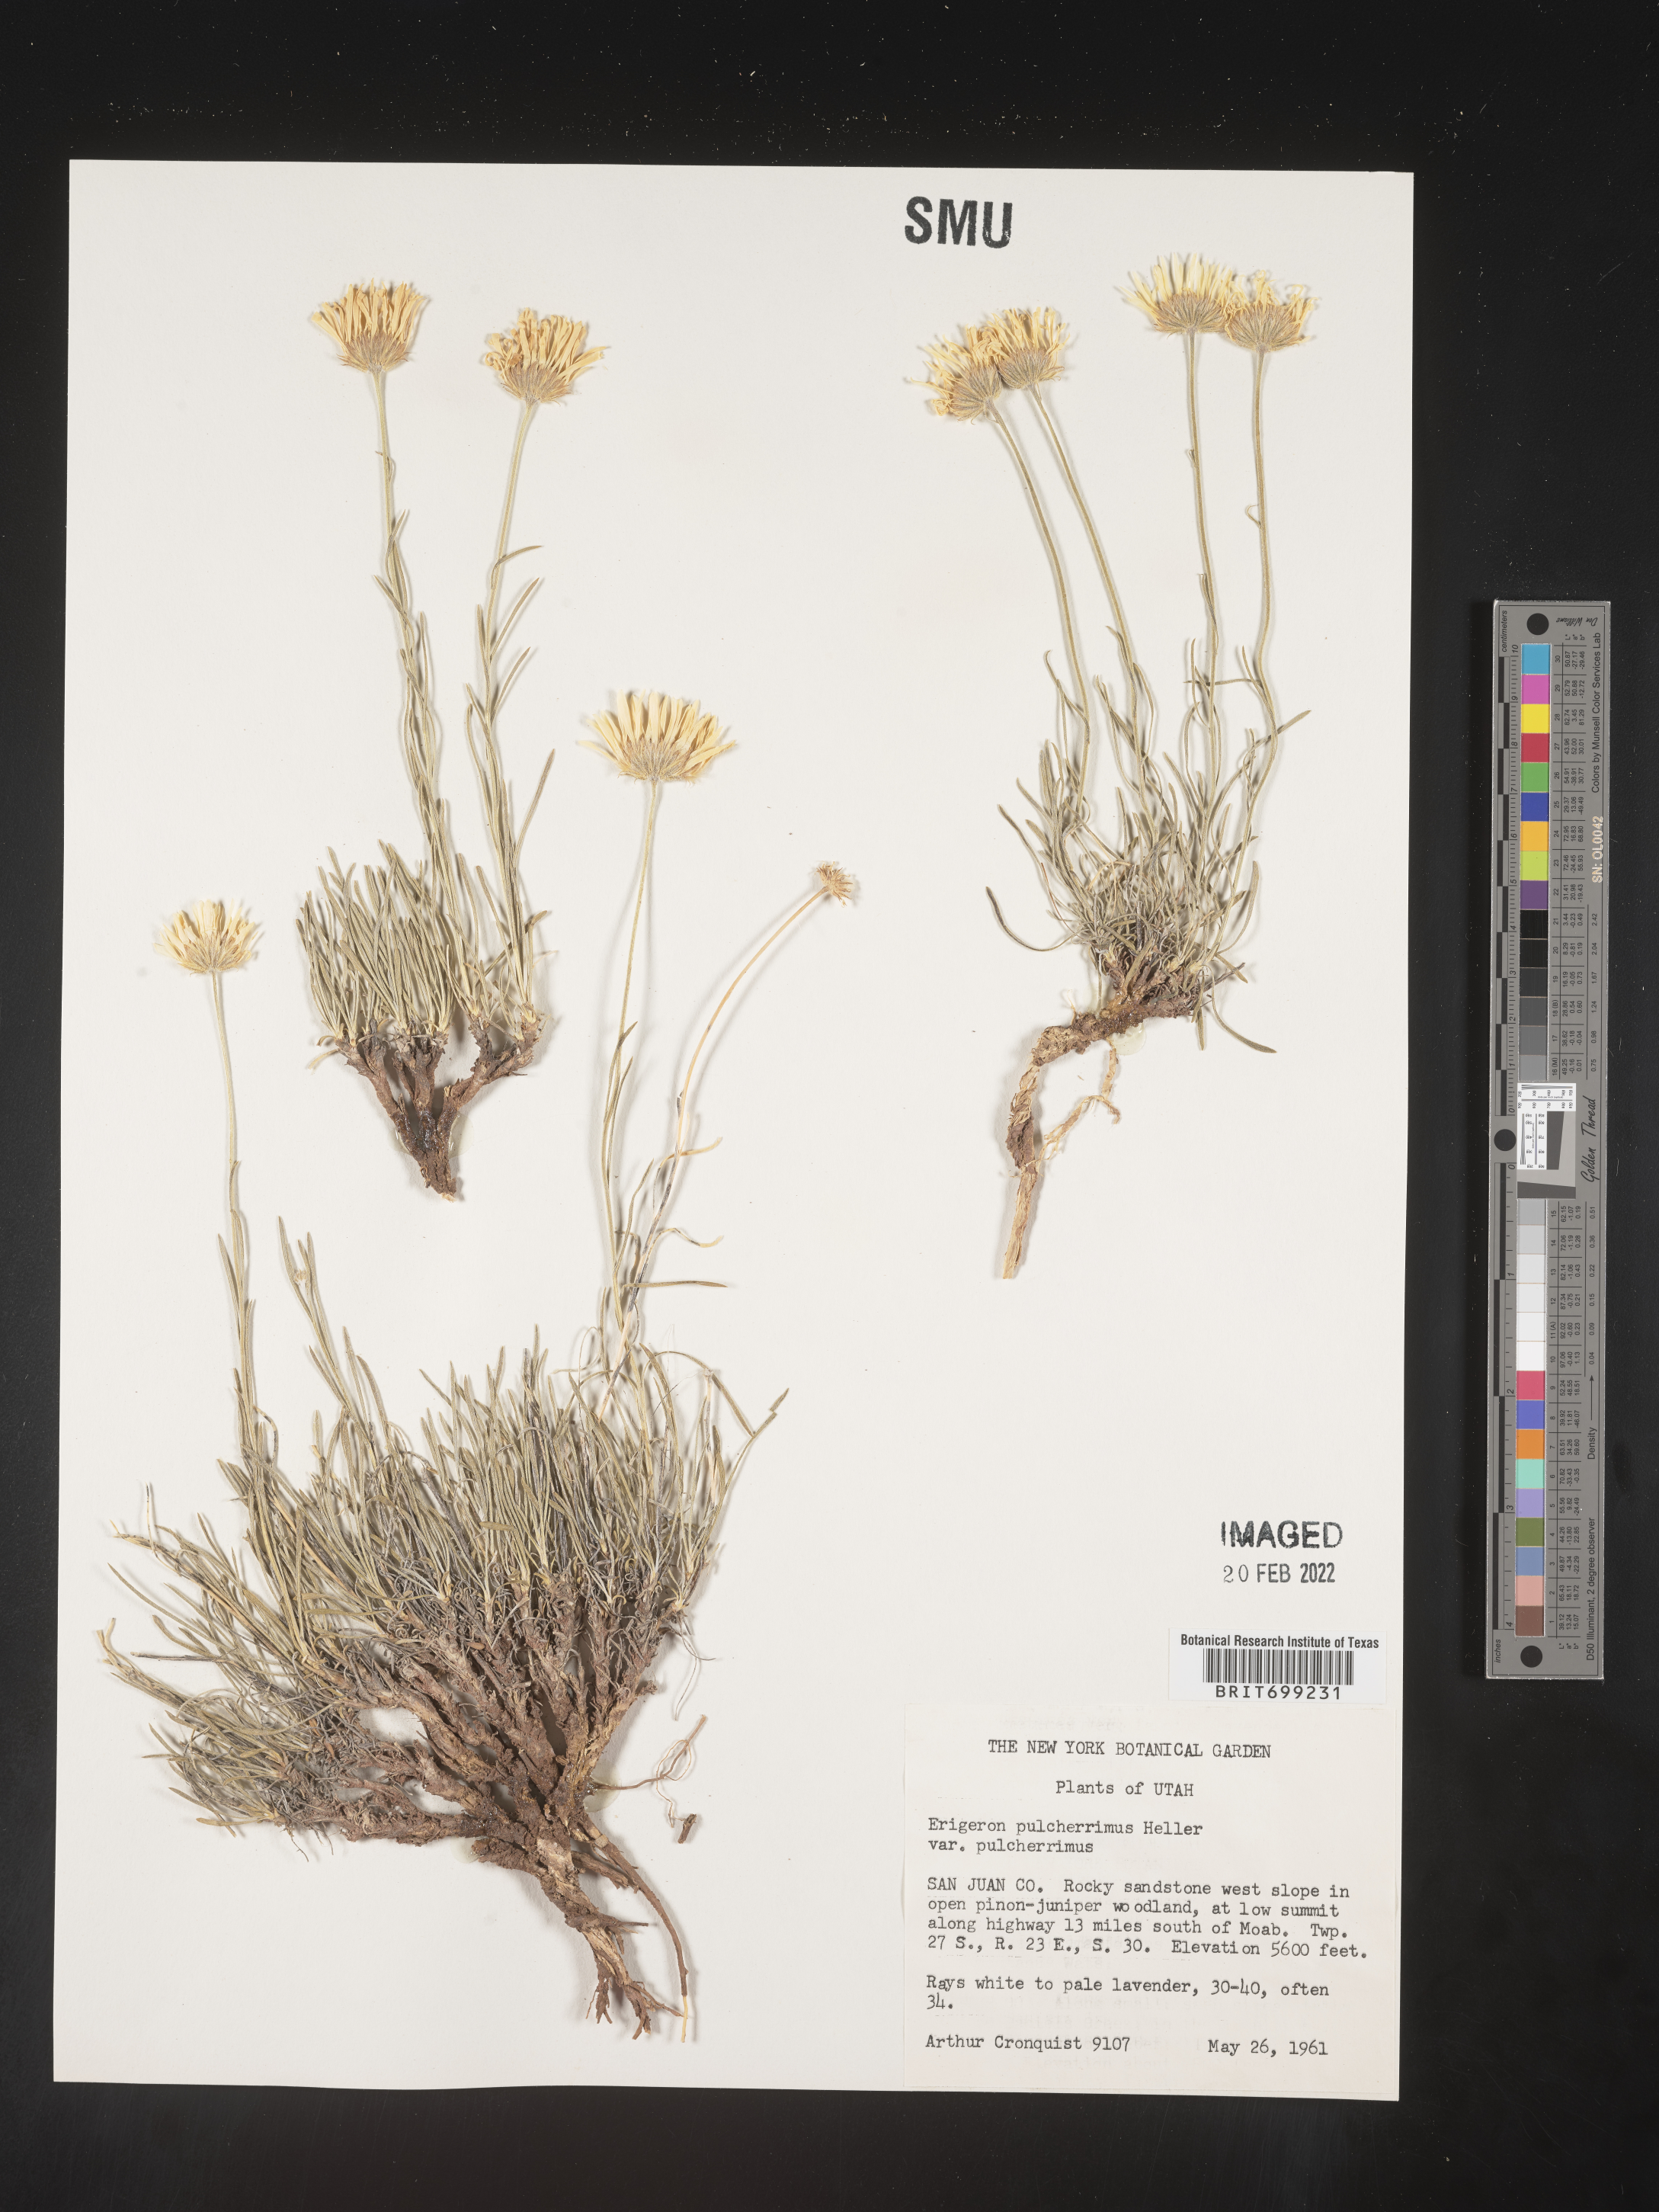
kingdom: Plantae
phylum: Tracheophyta
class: Magnoliopsida
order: Asterales
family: Asteraceae
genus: Erigeron
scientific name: Erigeron pulcherrimus
